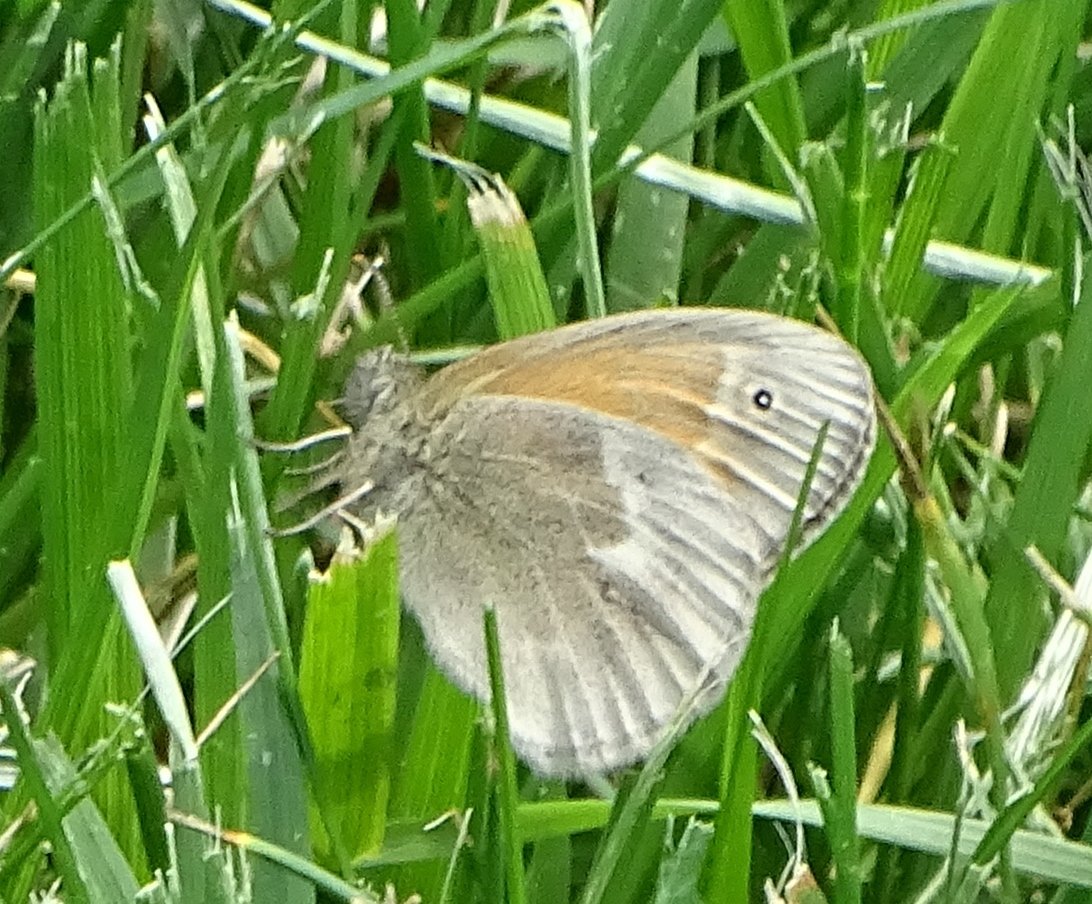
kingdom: Animalia
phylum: Arthropoda
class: Insecta
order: Lepidoptera
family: Nymphalidae
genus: Coenonympha
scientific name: Coenonympha tullia
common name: Large Heath
